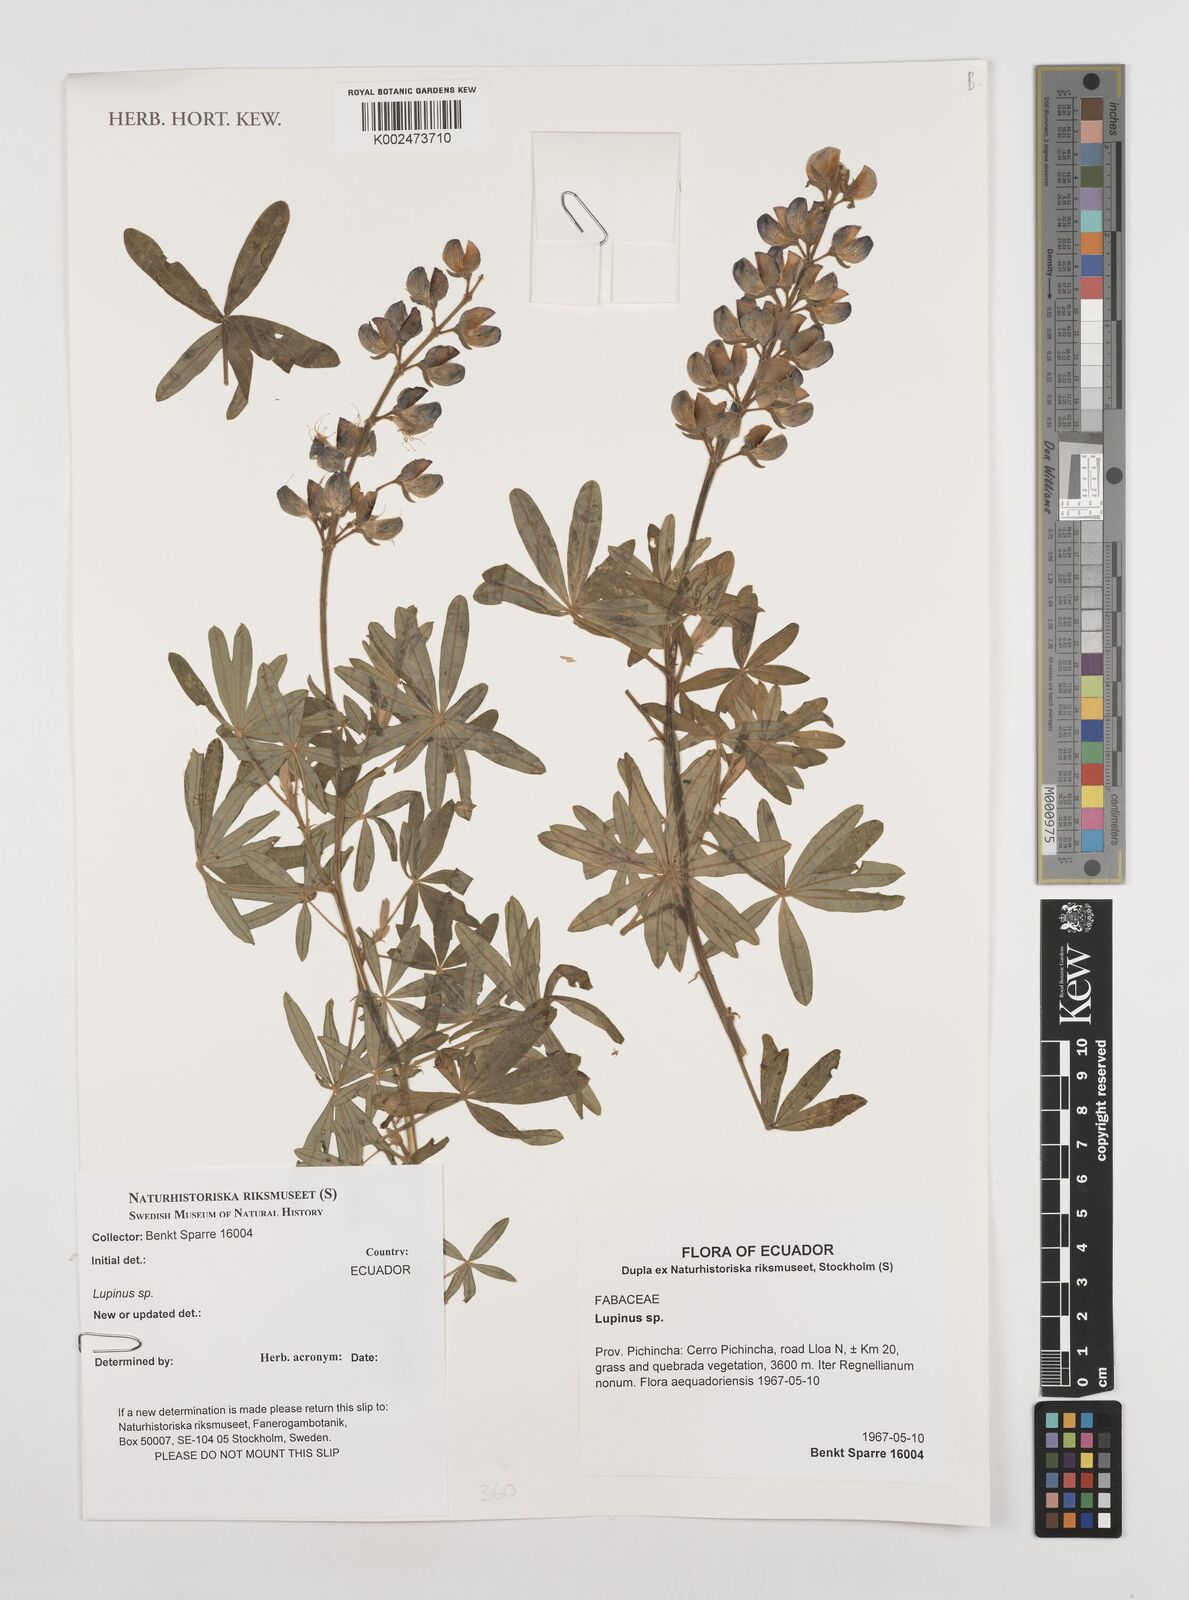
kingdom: Plantae
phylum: Tracheophyta
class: Magnoliopsida
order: Fabales
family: Fabaceae
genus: Lupinus
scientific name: Lupinus
